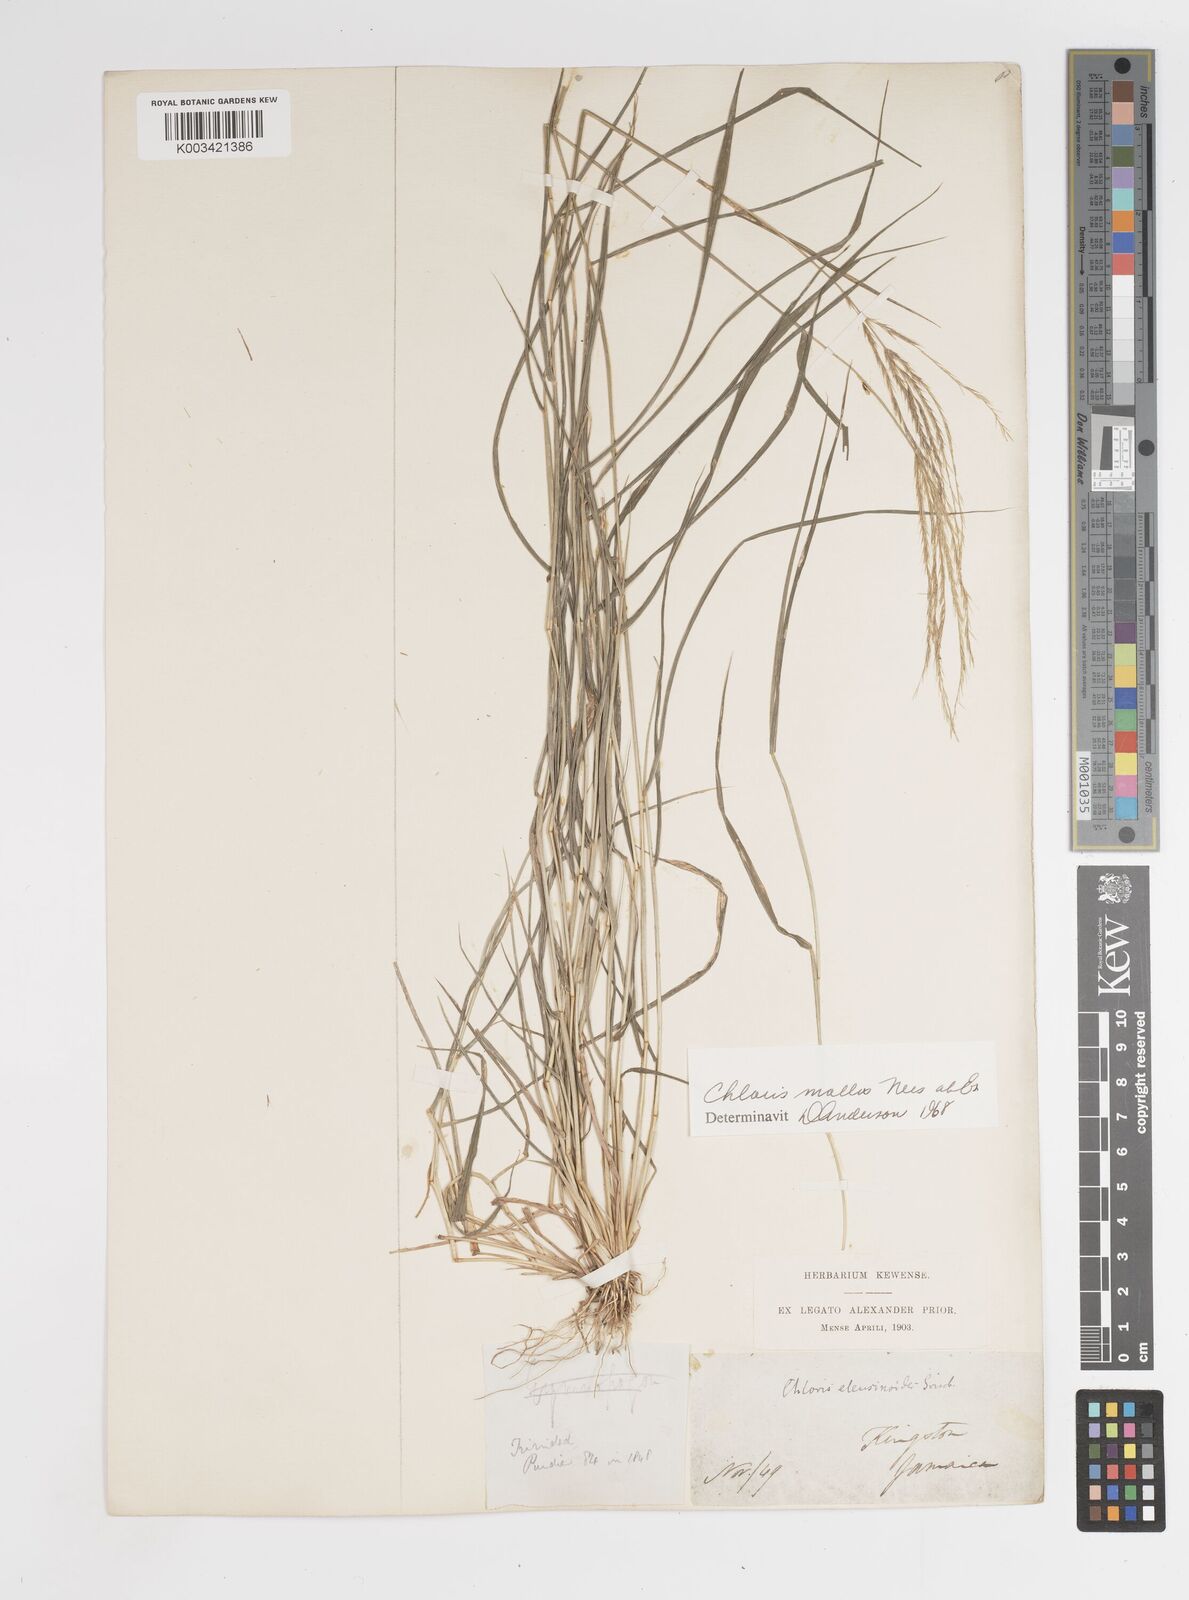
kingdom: Plantae
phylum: Tracheophyta
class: Liliopsida
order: Poales
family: Poaceae
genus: Leptochloa
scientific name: Leptochloa anisopoda
